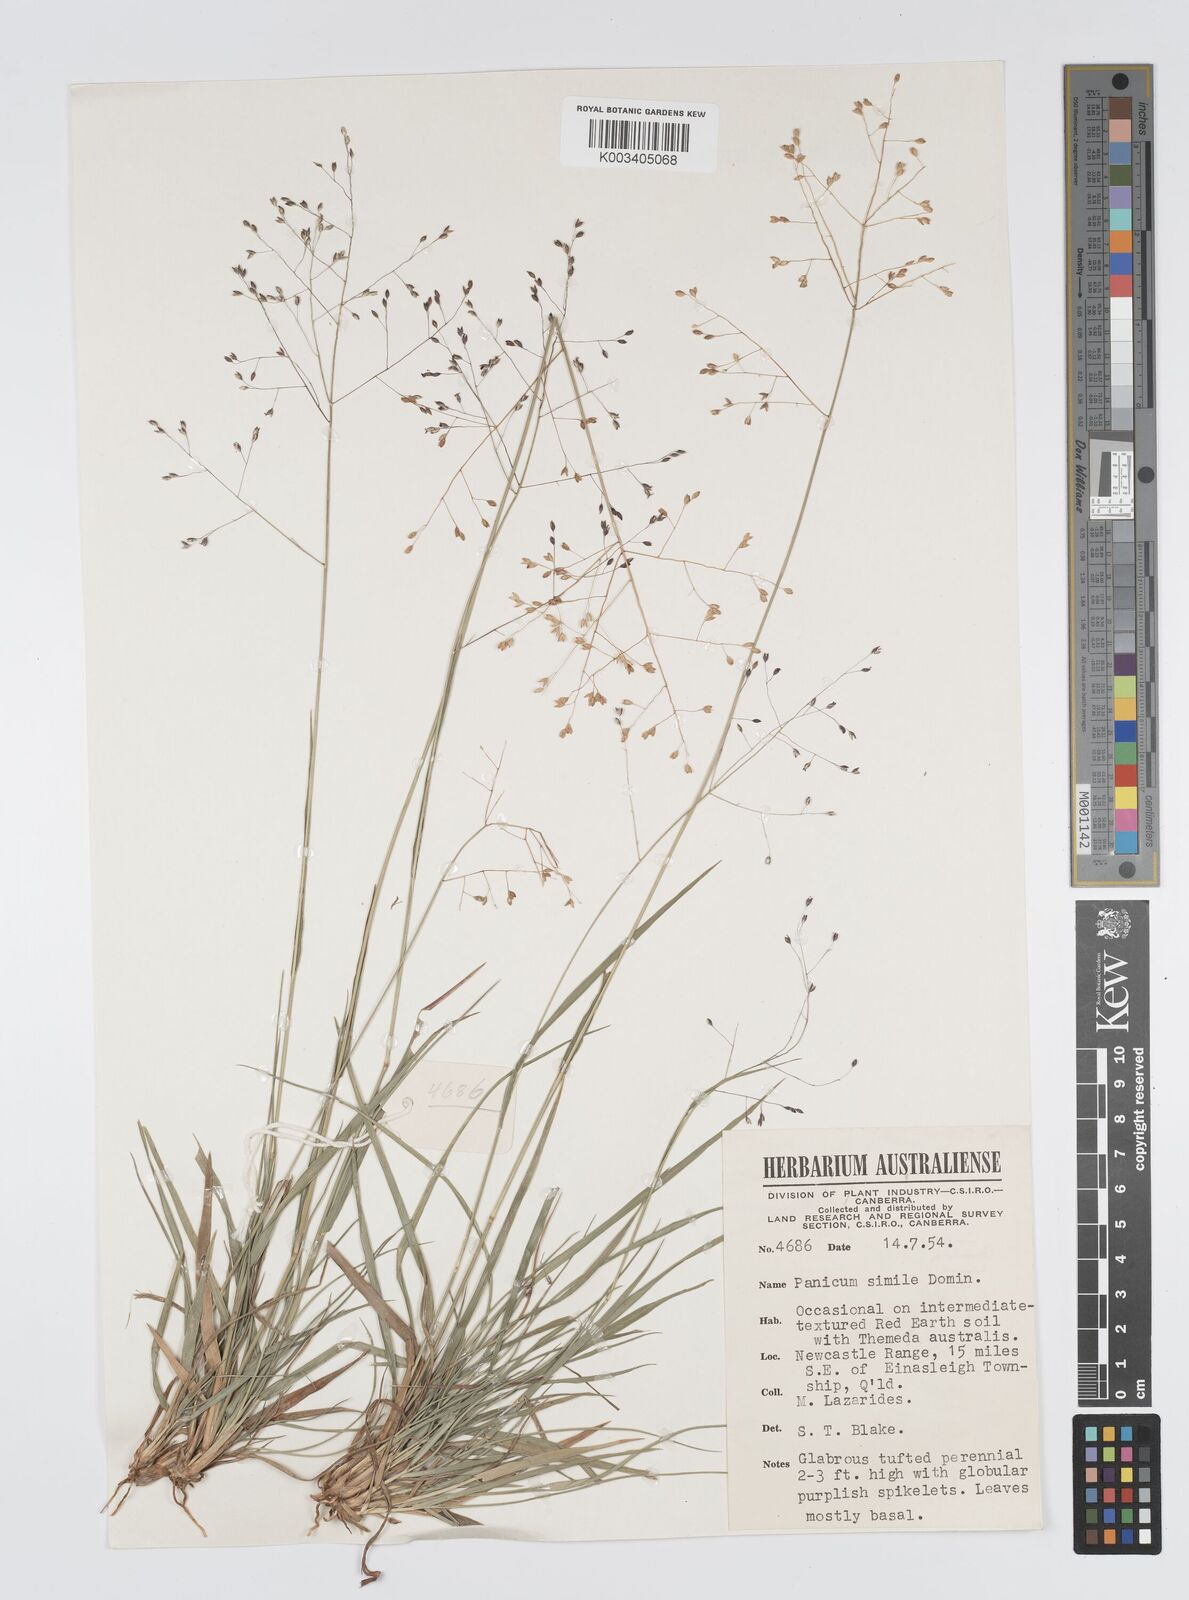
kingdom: Plantae
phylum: Tracheophyta
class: Liliopsida
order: Poales
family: Poaceae
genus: Panicum
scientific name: Panicum simile
